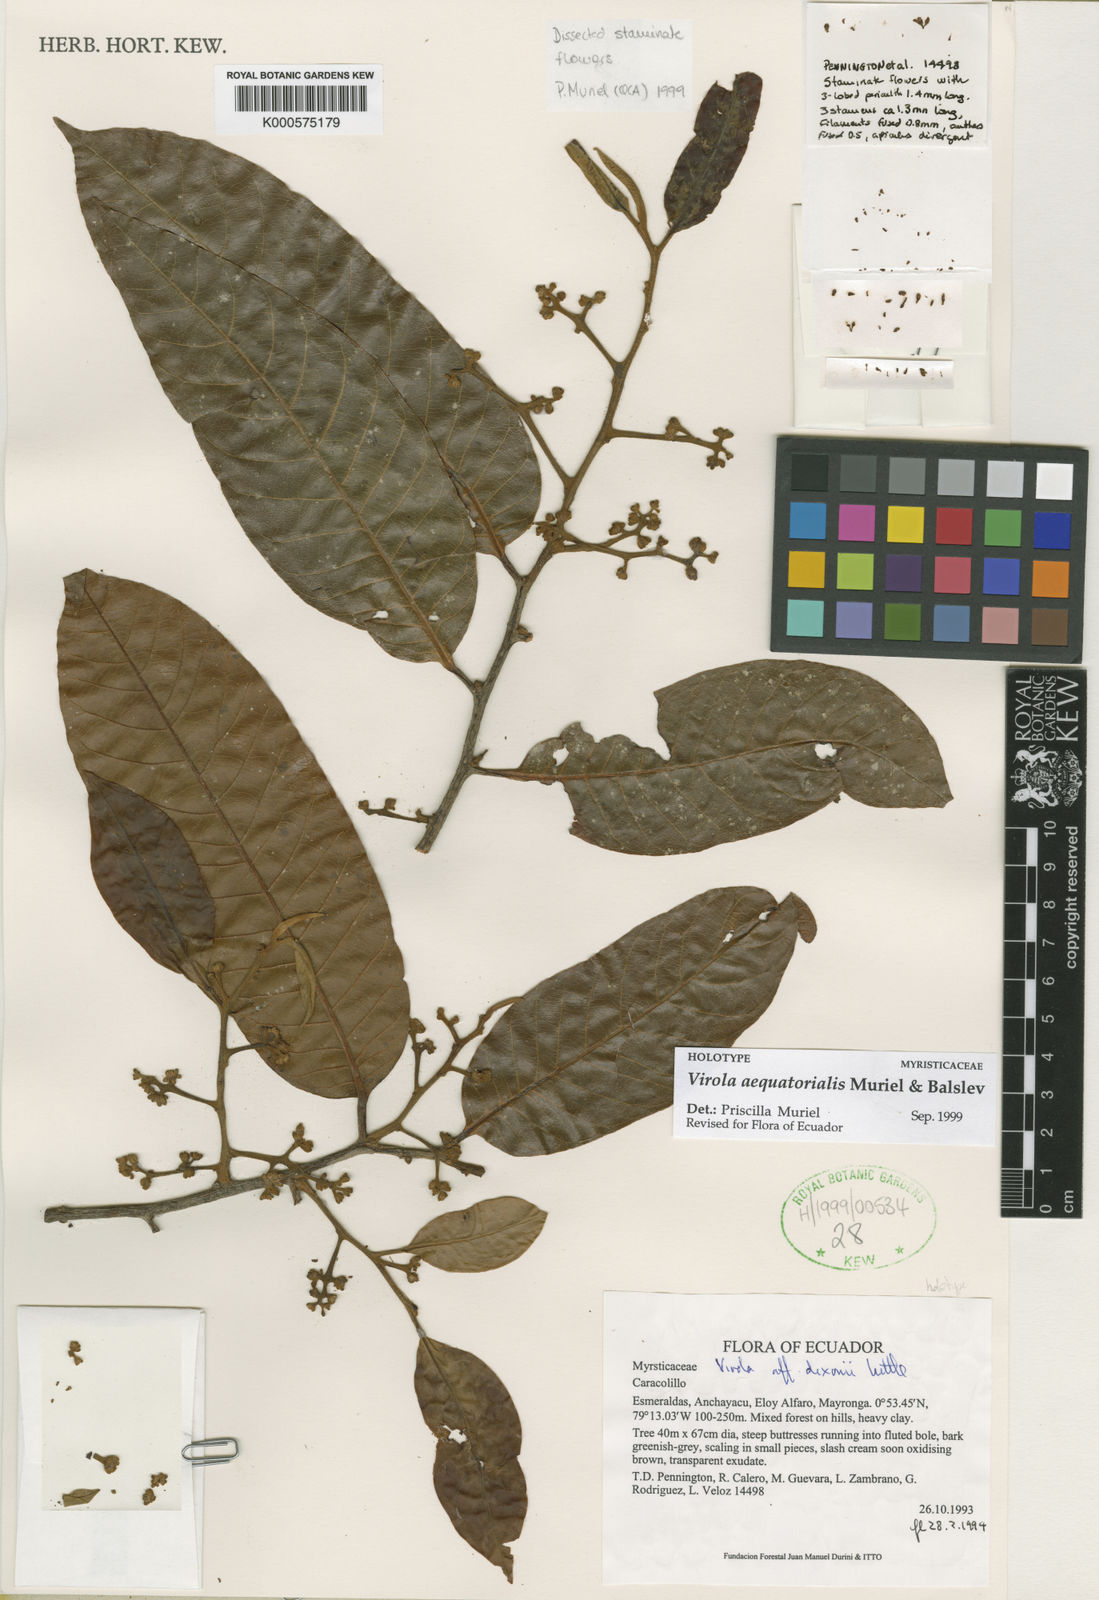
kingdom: Plantae
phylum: Tracheophyta
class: Magnoliopsida
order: Magnoliales
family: Myristicaceae
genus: Virola
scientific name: Virola aequatorialis
